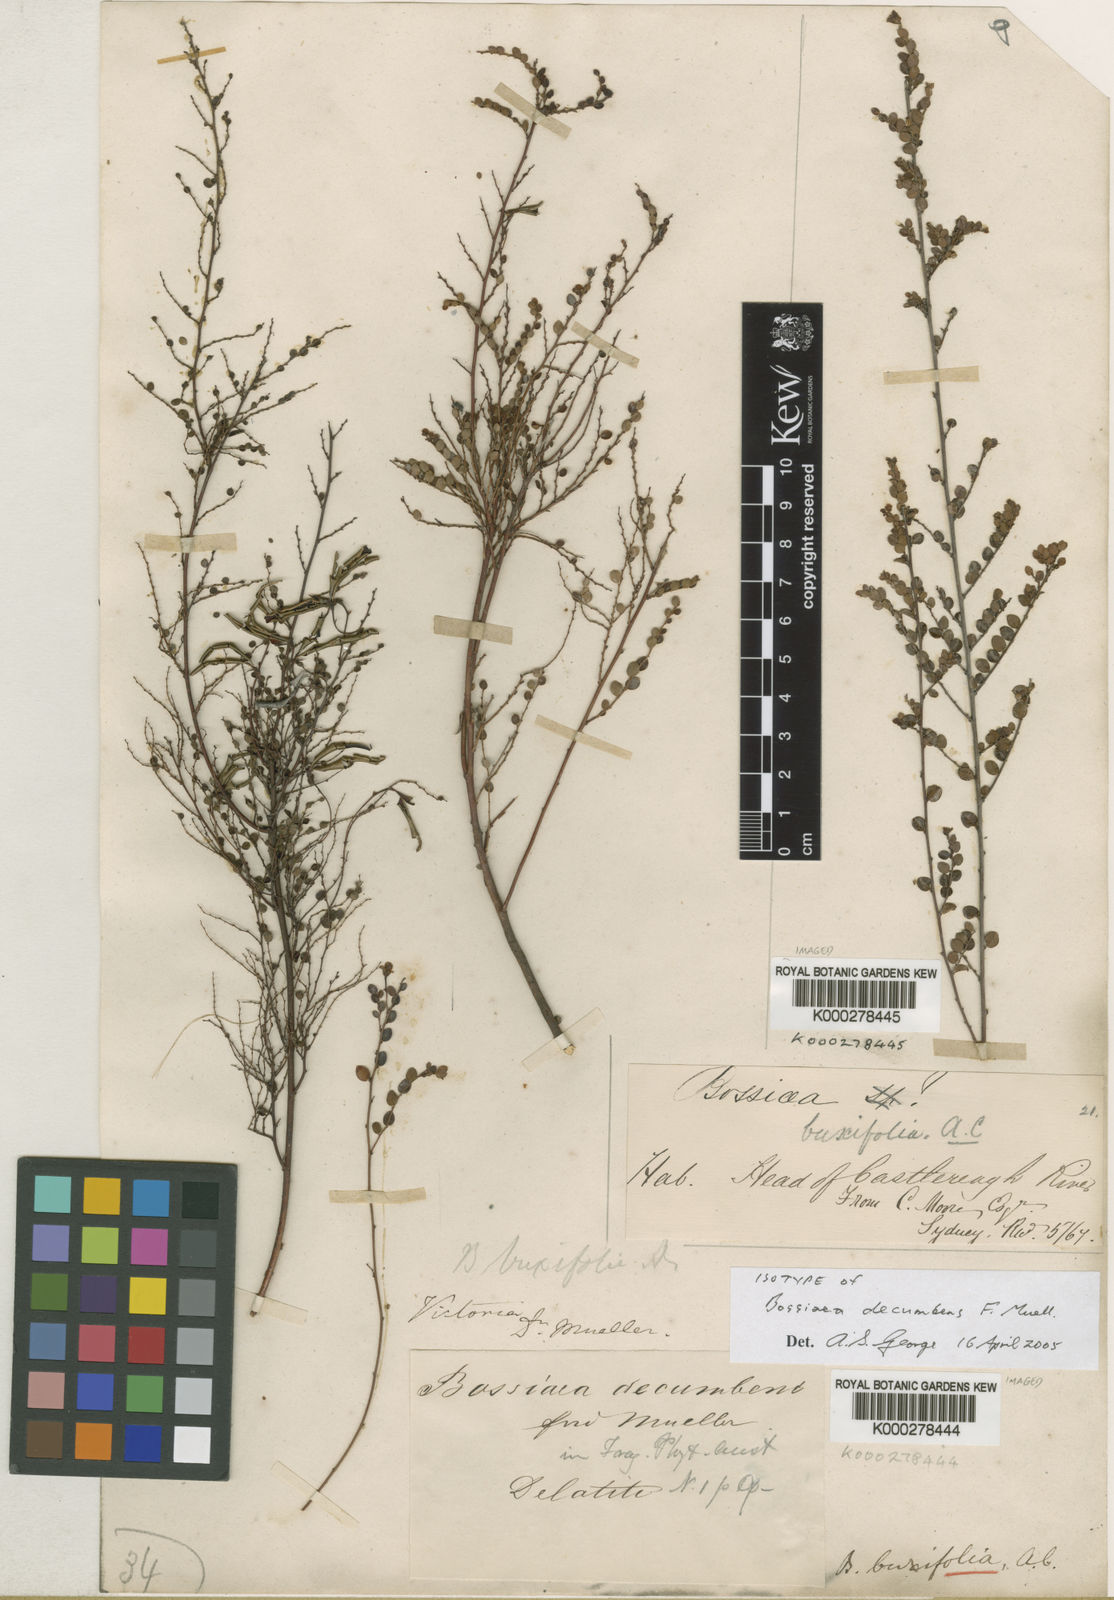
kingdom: Plantae
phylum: Tracheophyta
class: Magnoliopsida
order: Fabales
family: Fabaceae
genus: Bossiaea
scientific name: Bossiaea buxifolia
